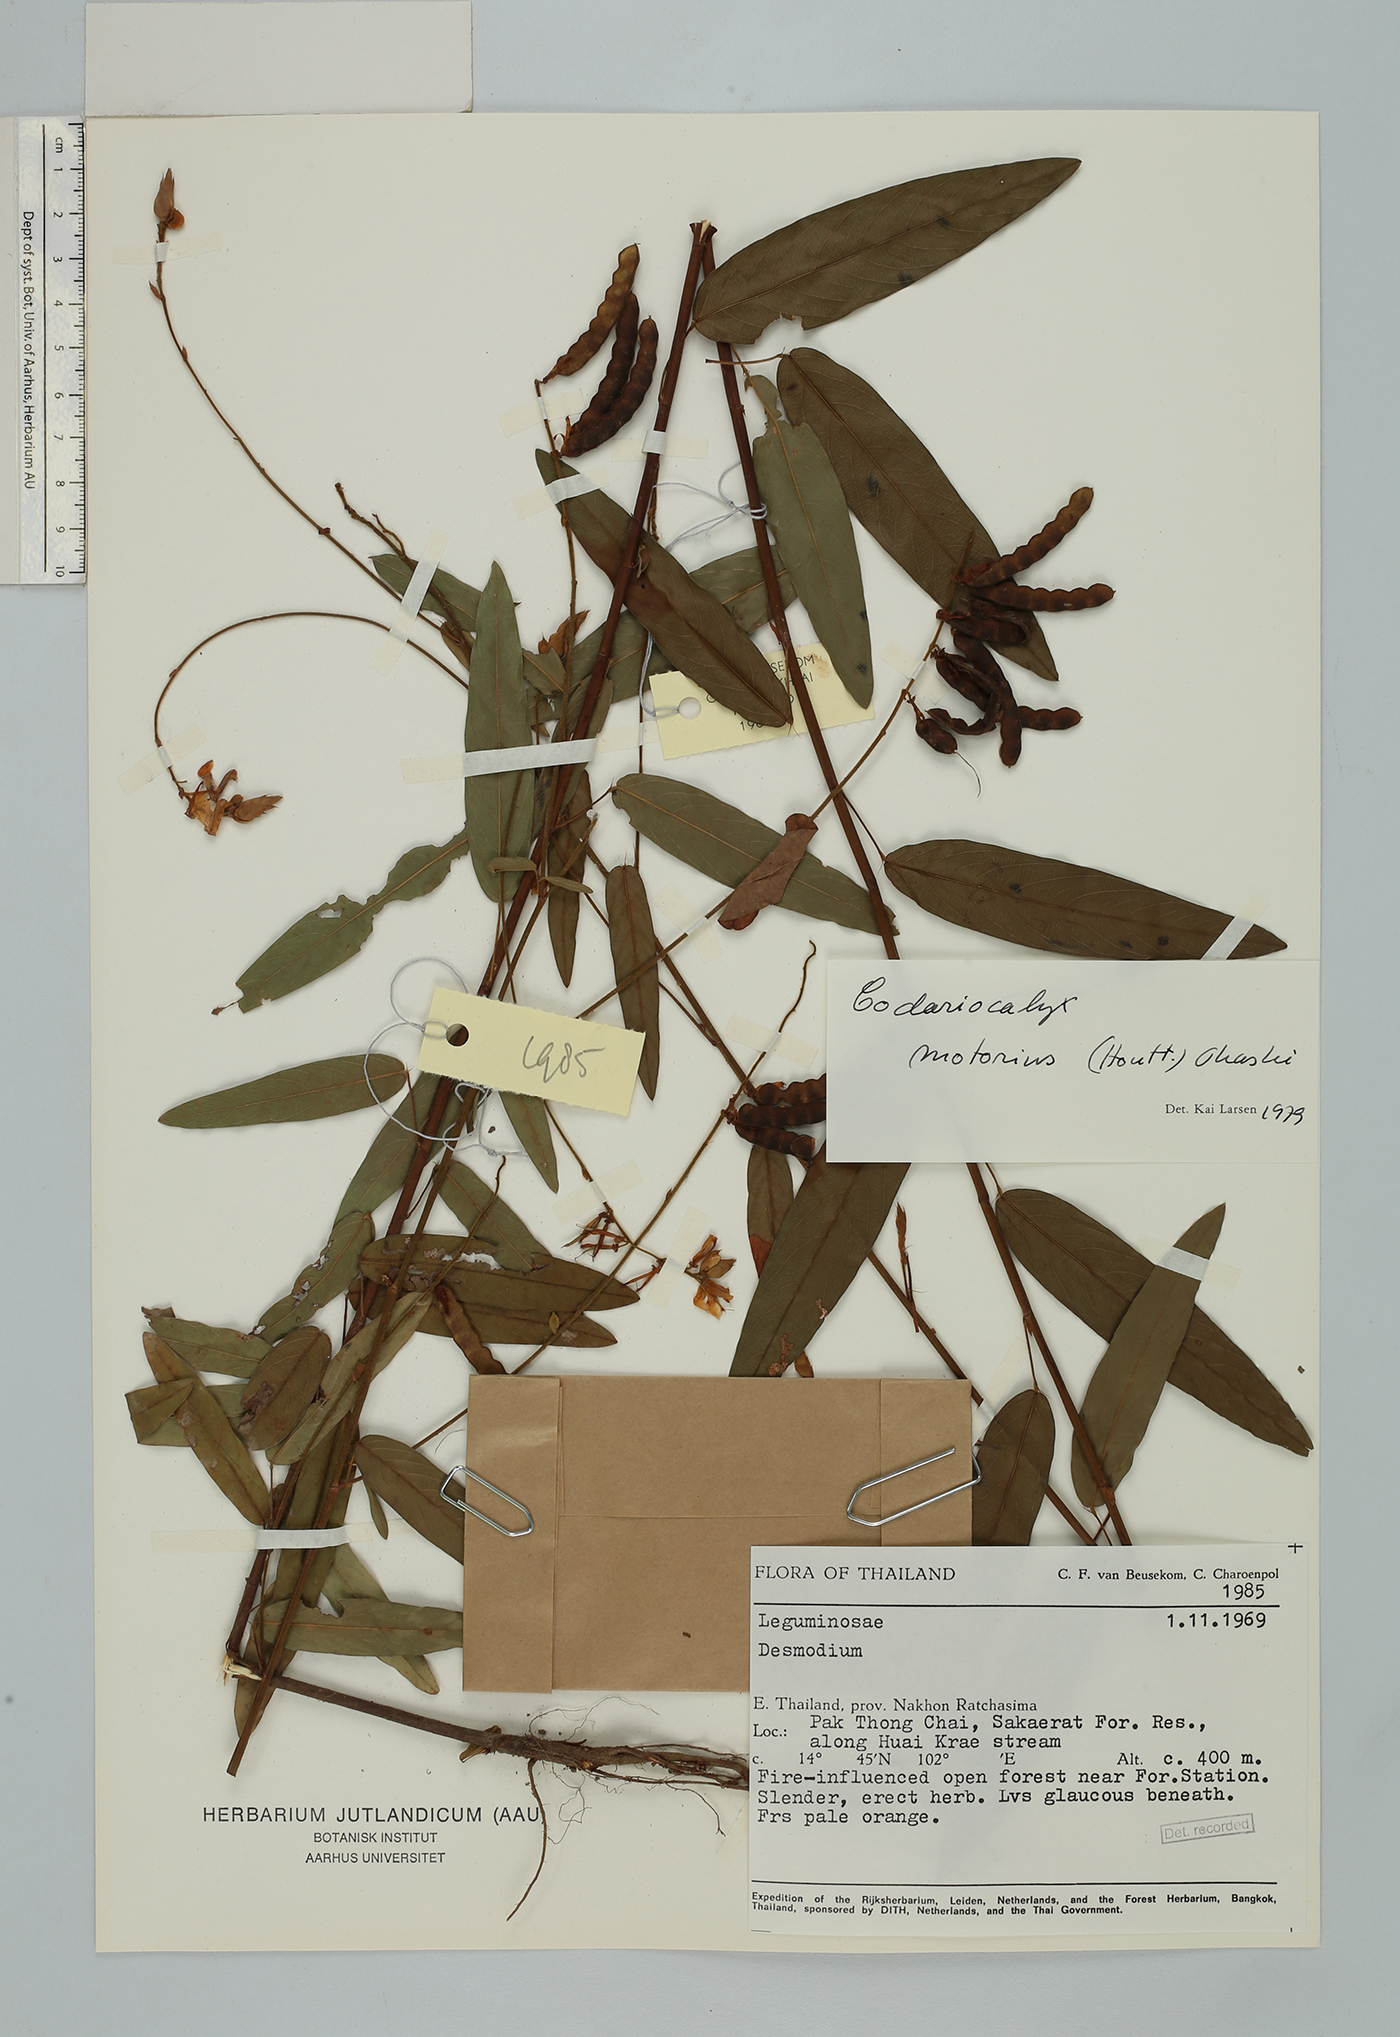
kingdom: Plantae
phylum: Tracheophyta
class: Magnoliopsida
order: Fabales
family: Fabaceae
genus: Codariocalyx
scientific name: Codariocalyx motorius
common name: Telegraph-plant
